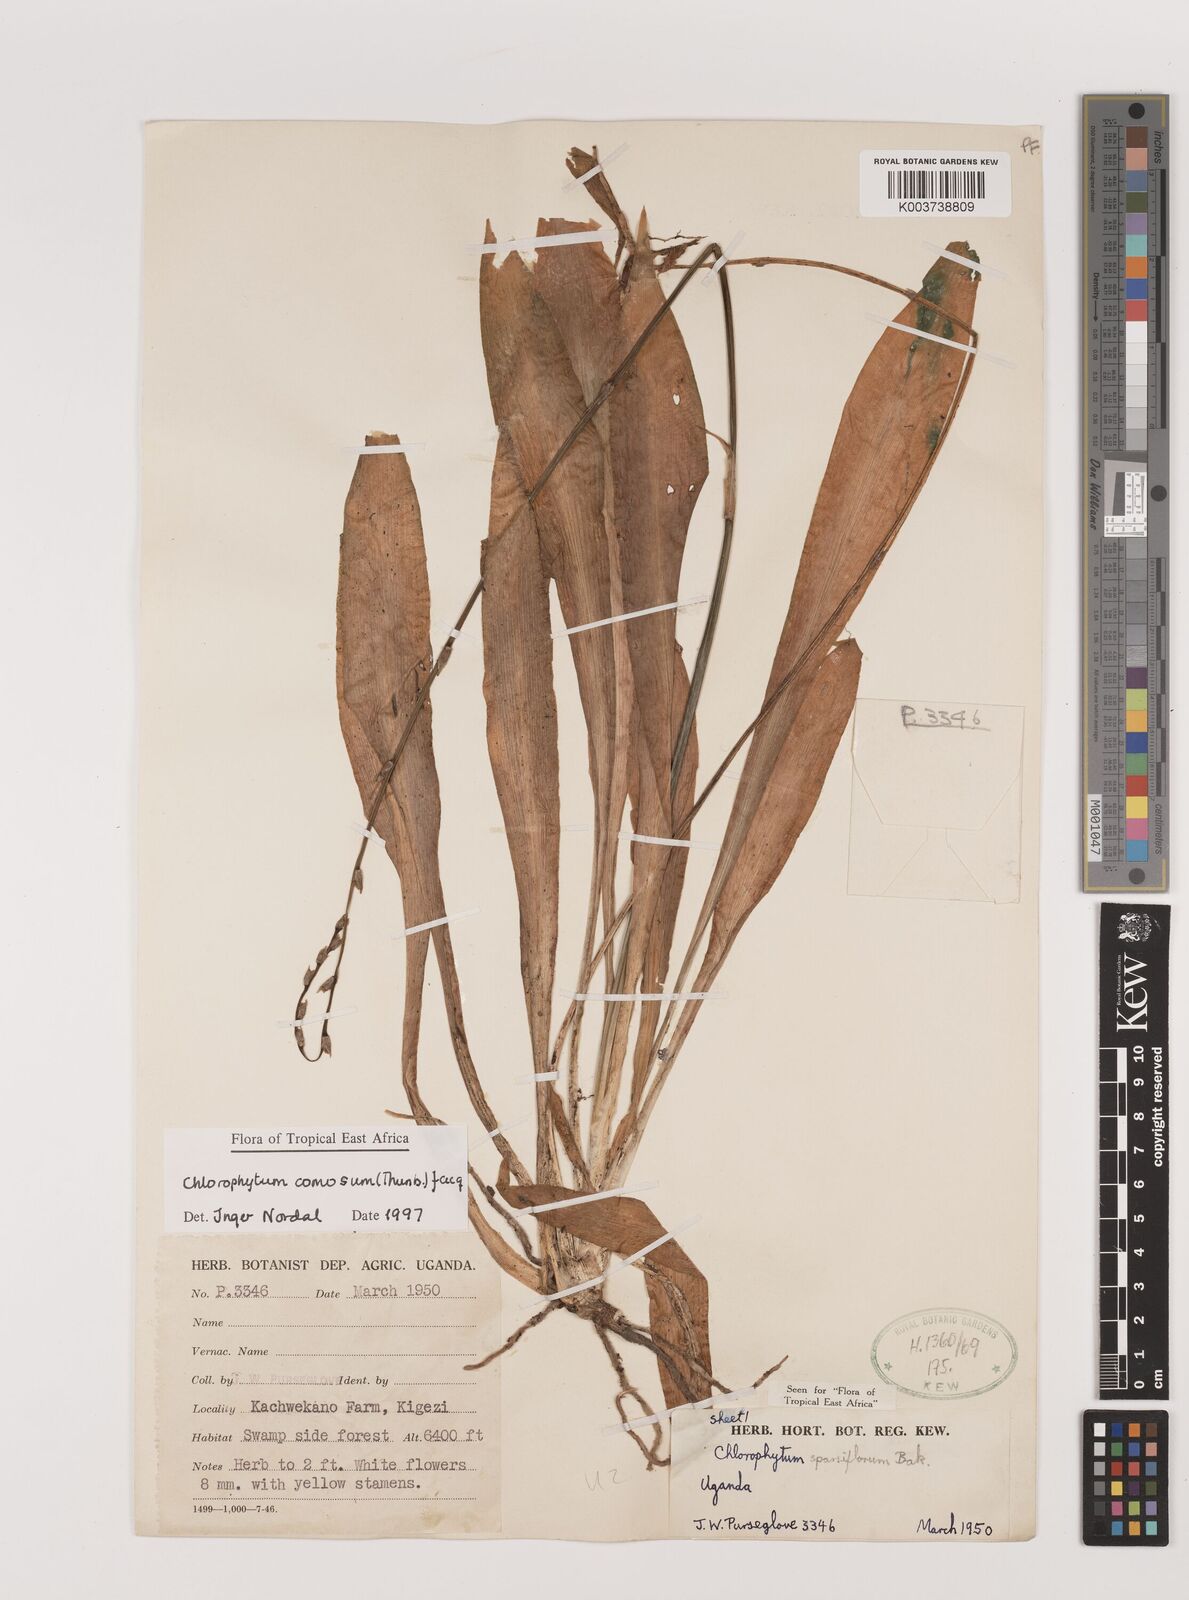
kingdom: Plantae
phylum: Tracheophyta
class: Liliopsida
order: Asparagales
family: Asparagaceae
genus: Chlorophytum
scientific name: Chlorophytum comosum
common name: Spider plant
